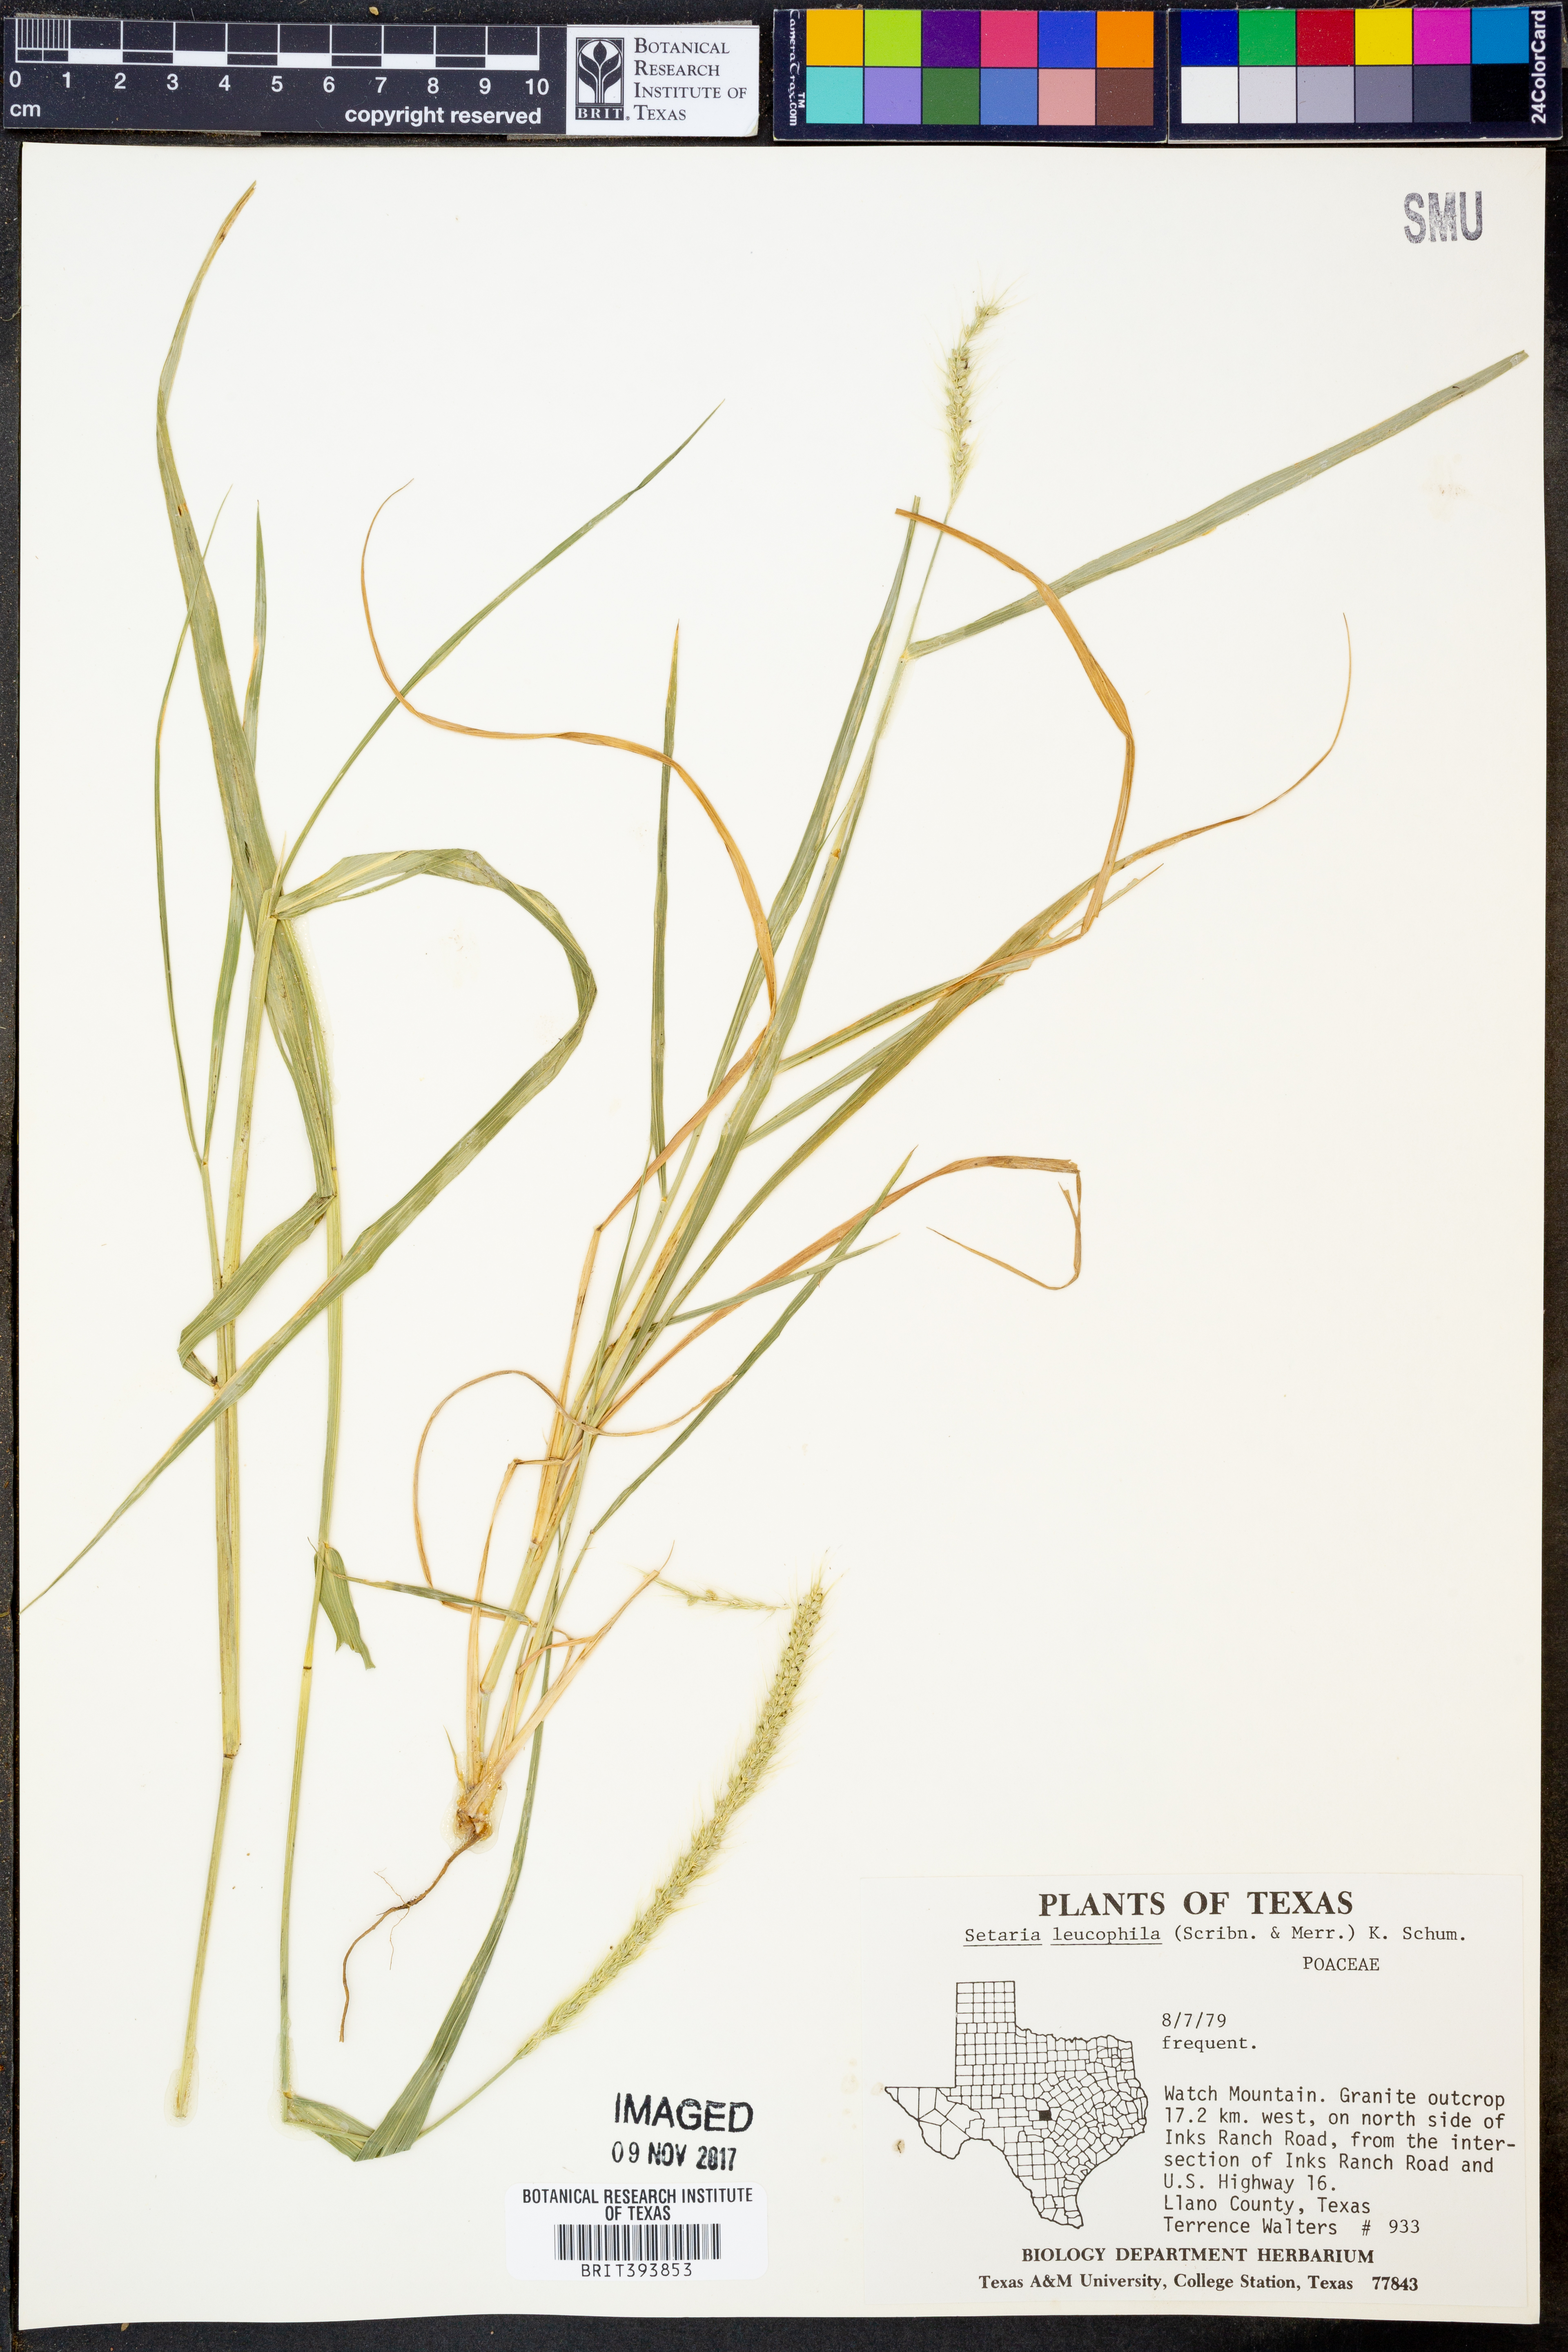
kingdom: Plantae
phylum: Tracheophyta
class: Liliopsida
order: Poales
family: Poaceae
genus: Setaria
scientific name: Setaria leucopila
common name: Plains bristle grass
